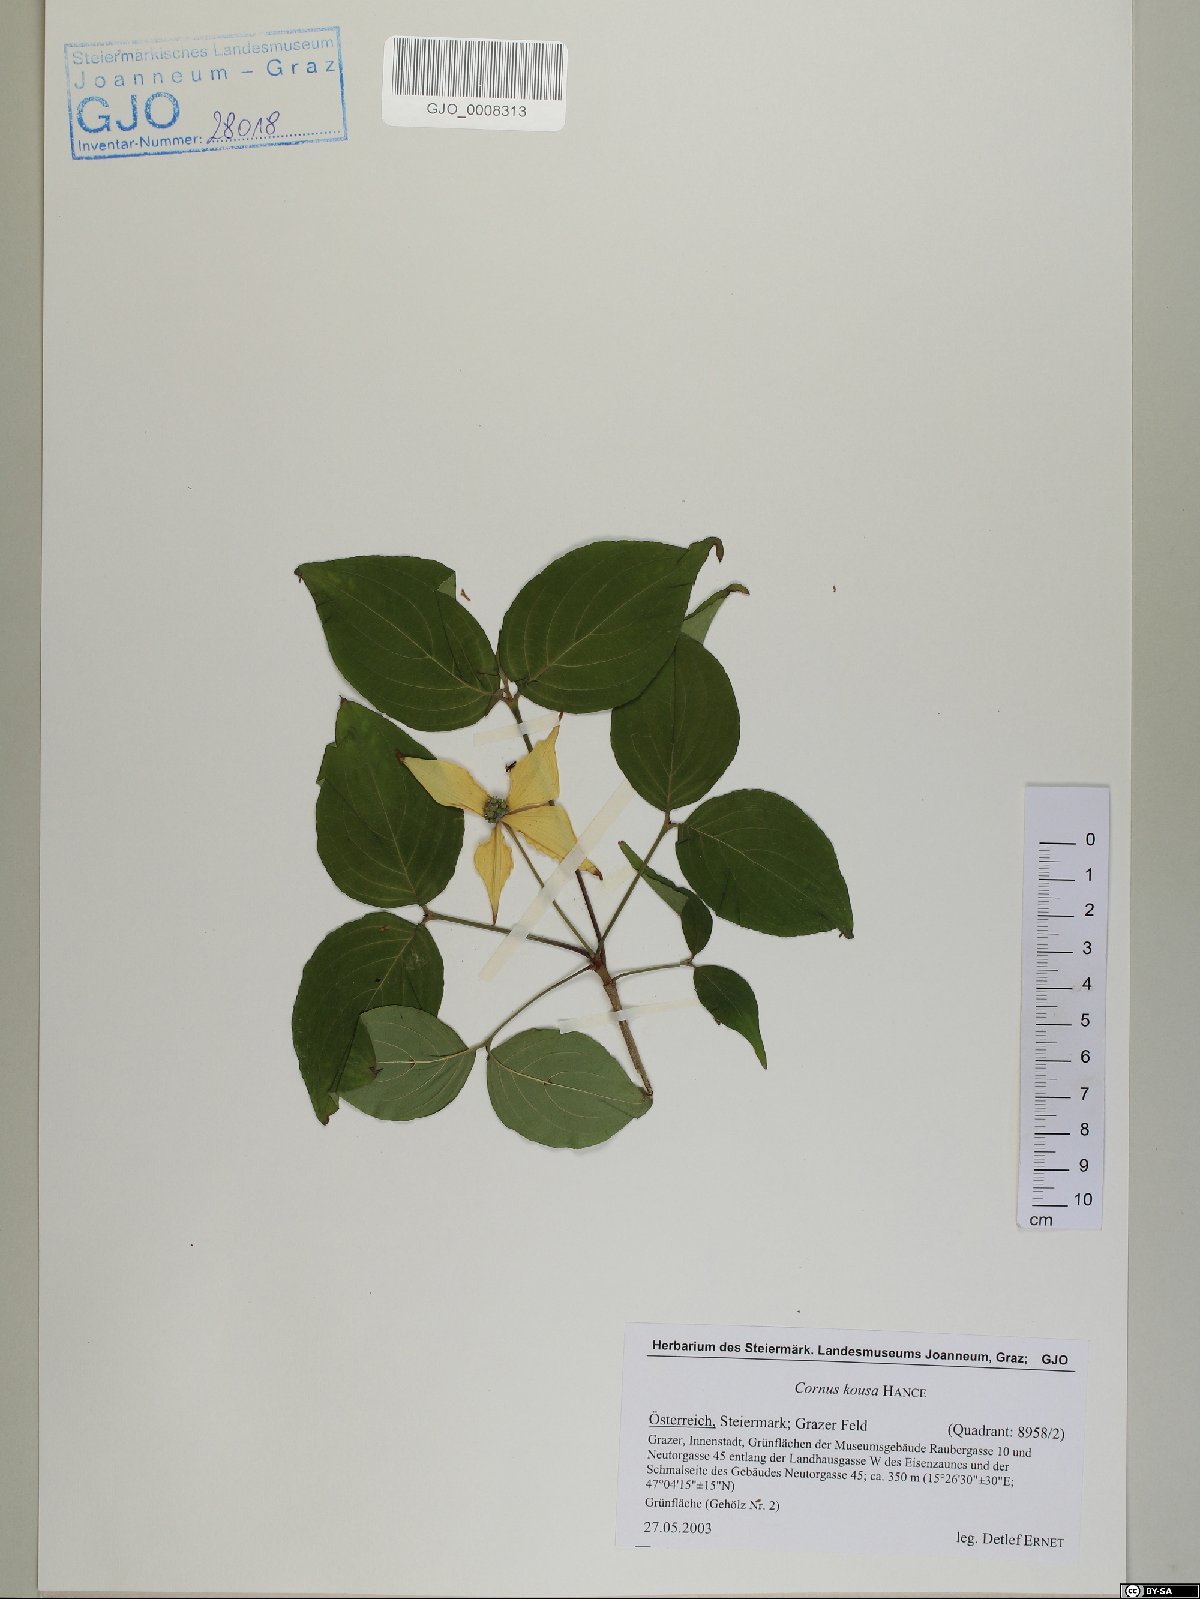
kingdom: Plantae
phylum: Tracheophyta
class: Magnoliopsida
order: Cornales
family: Cornaceae
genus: Cornus
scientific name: Cornus kousa
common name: Japanese dogwood
